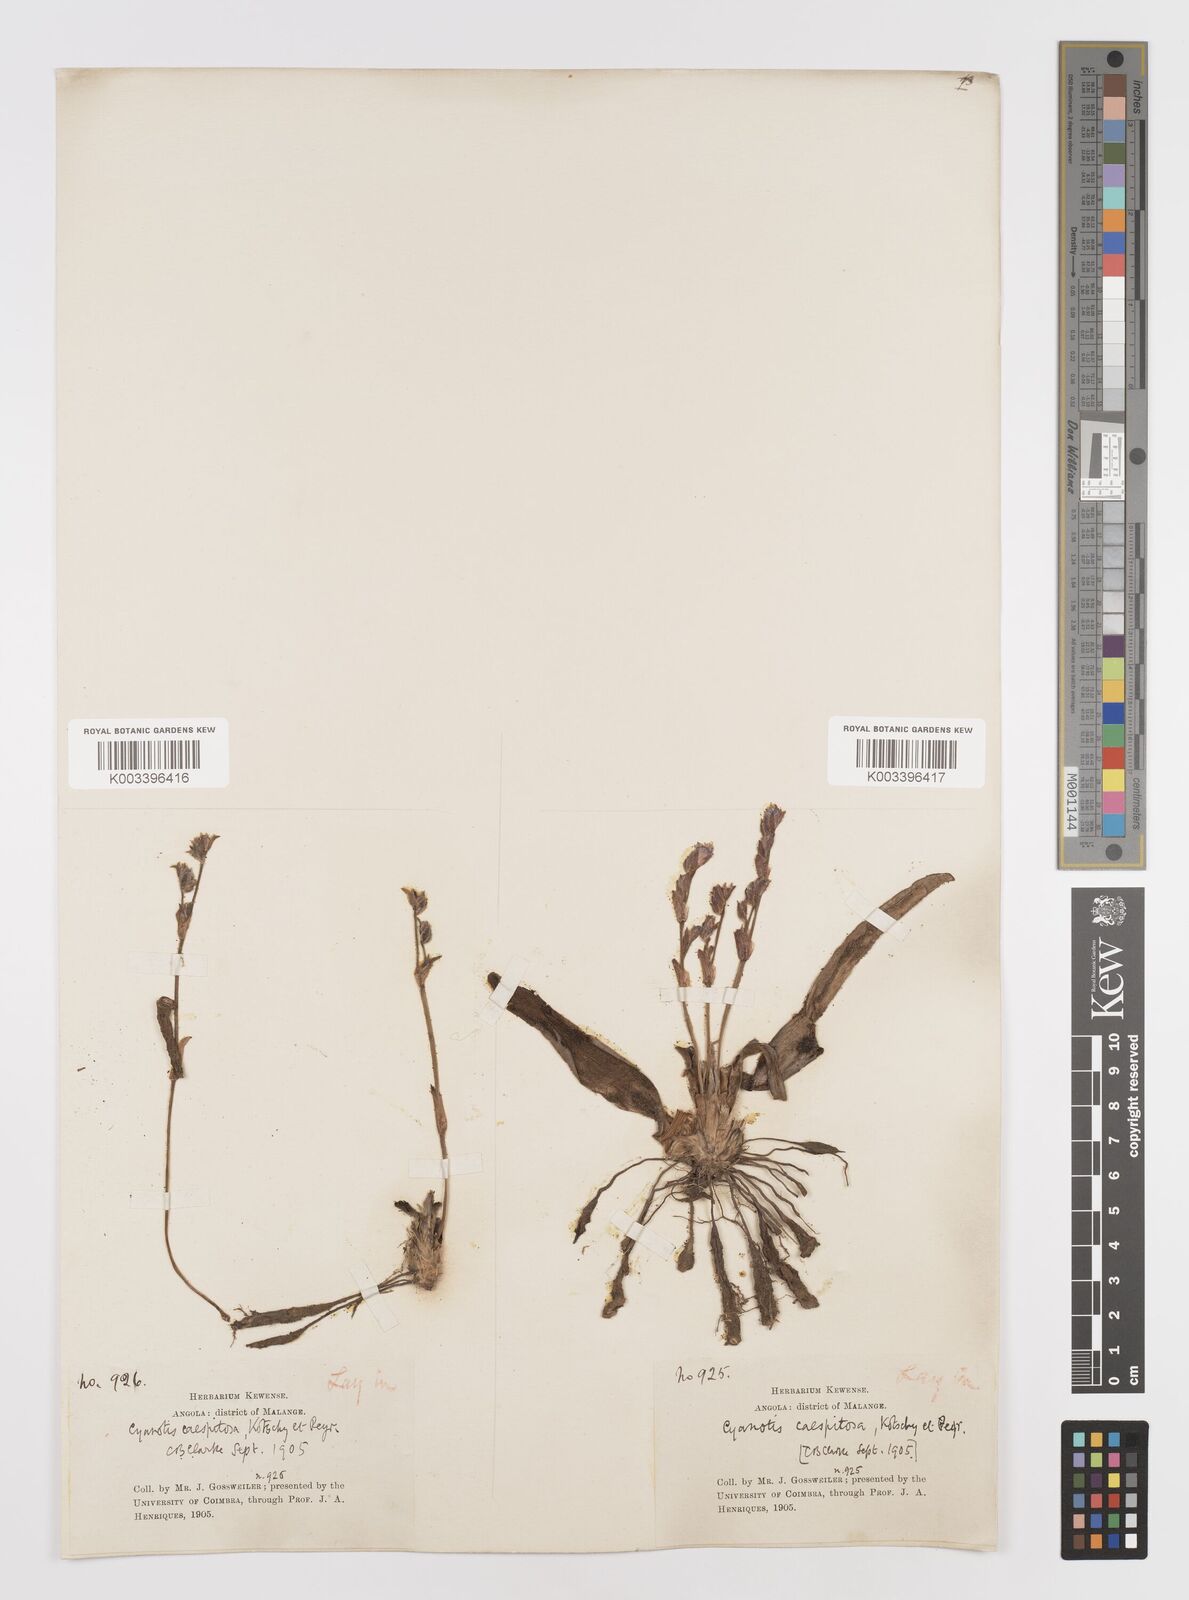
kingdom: Plantae
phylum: Tracheophyta
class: Liliopsida
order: Commelinales
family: Commelinaceae
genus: Cyanotis
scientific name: Cyanotis caespitosa
